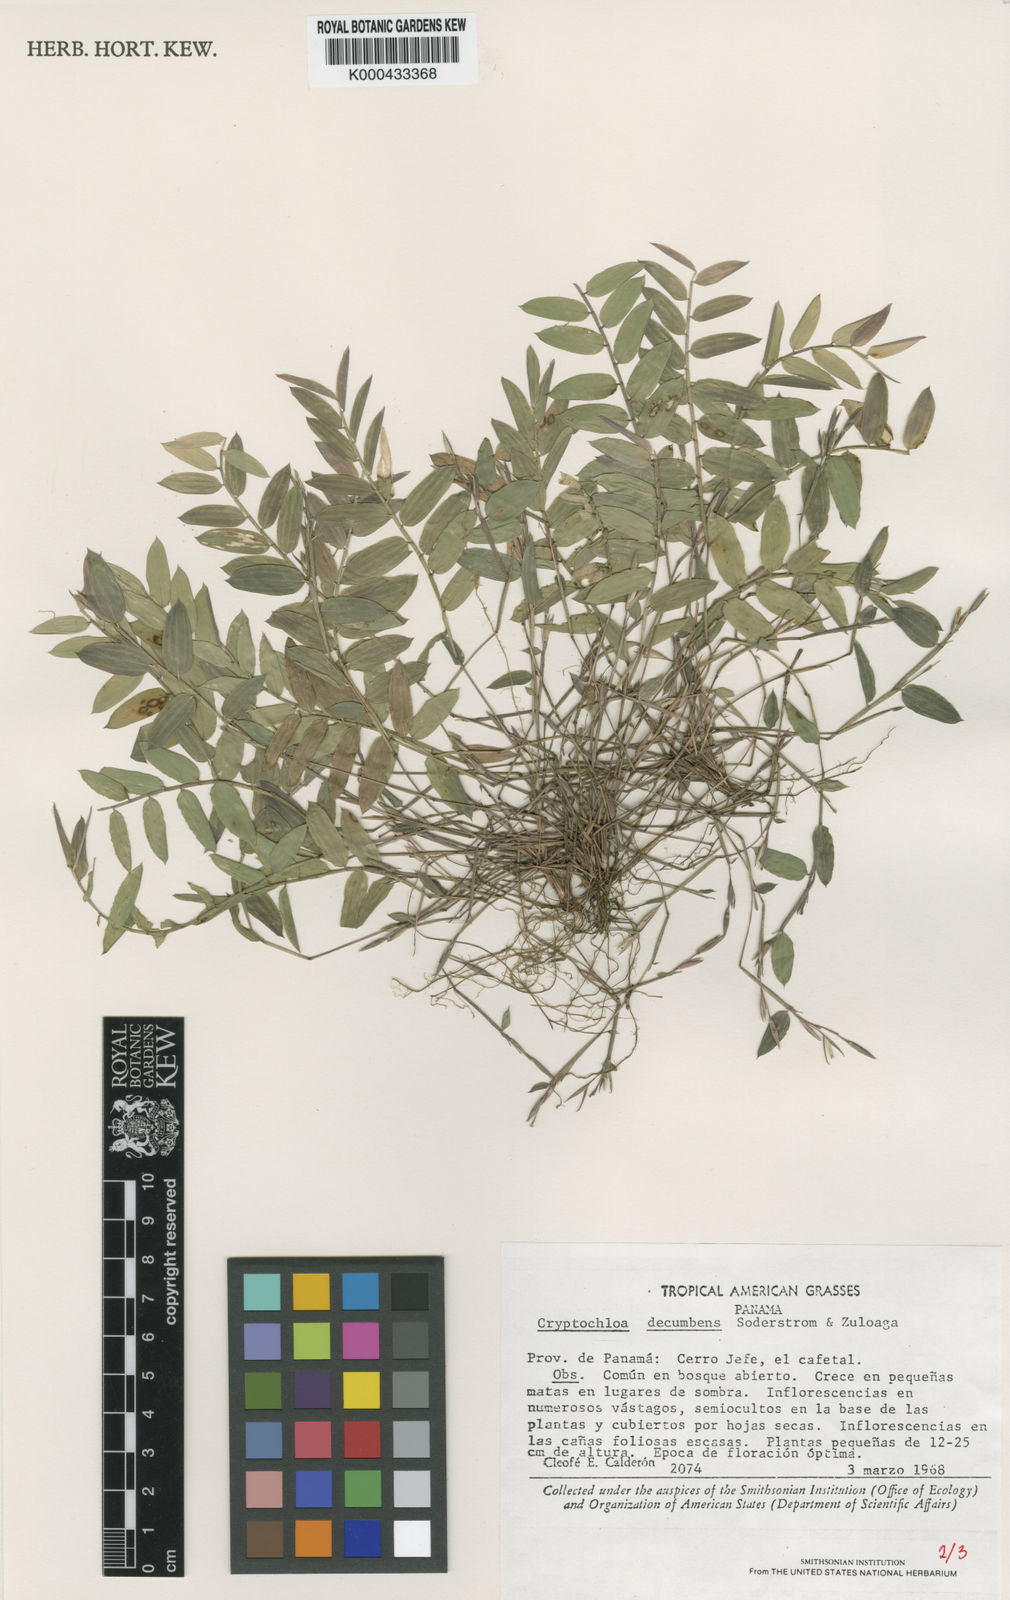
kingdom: Plantae
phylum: Tracheophyta
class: Liliopsida
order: Poales
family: Poaceae
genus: Cryptochloa
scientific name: Cryptochloa decumbens
